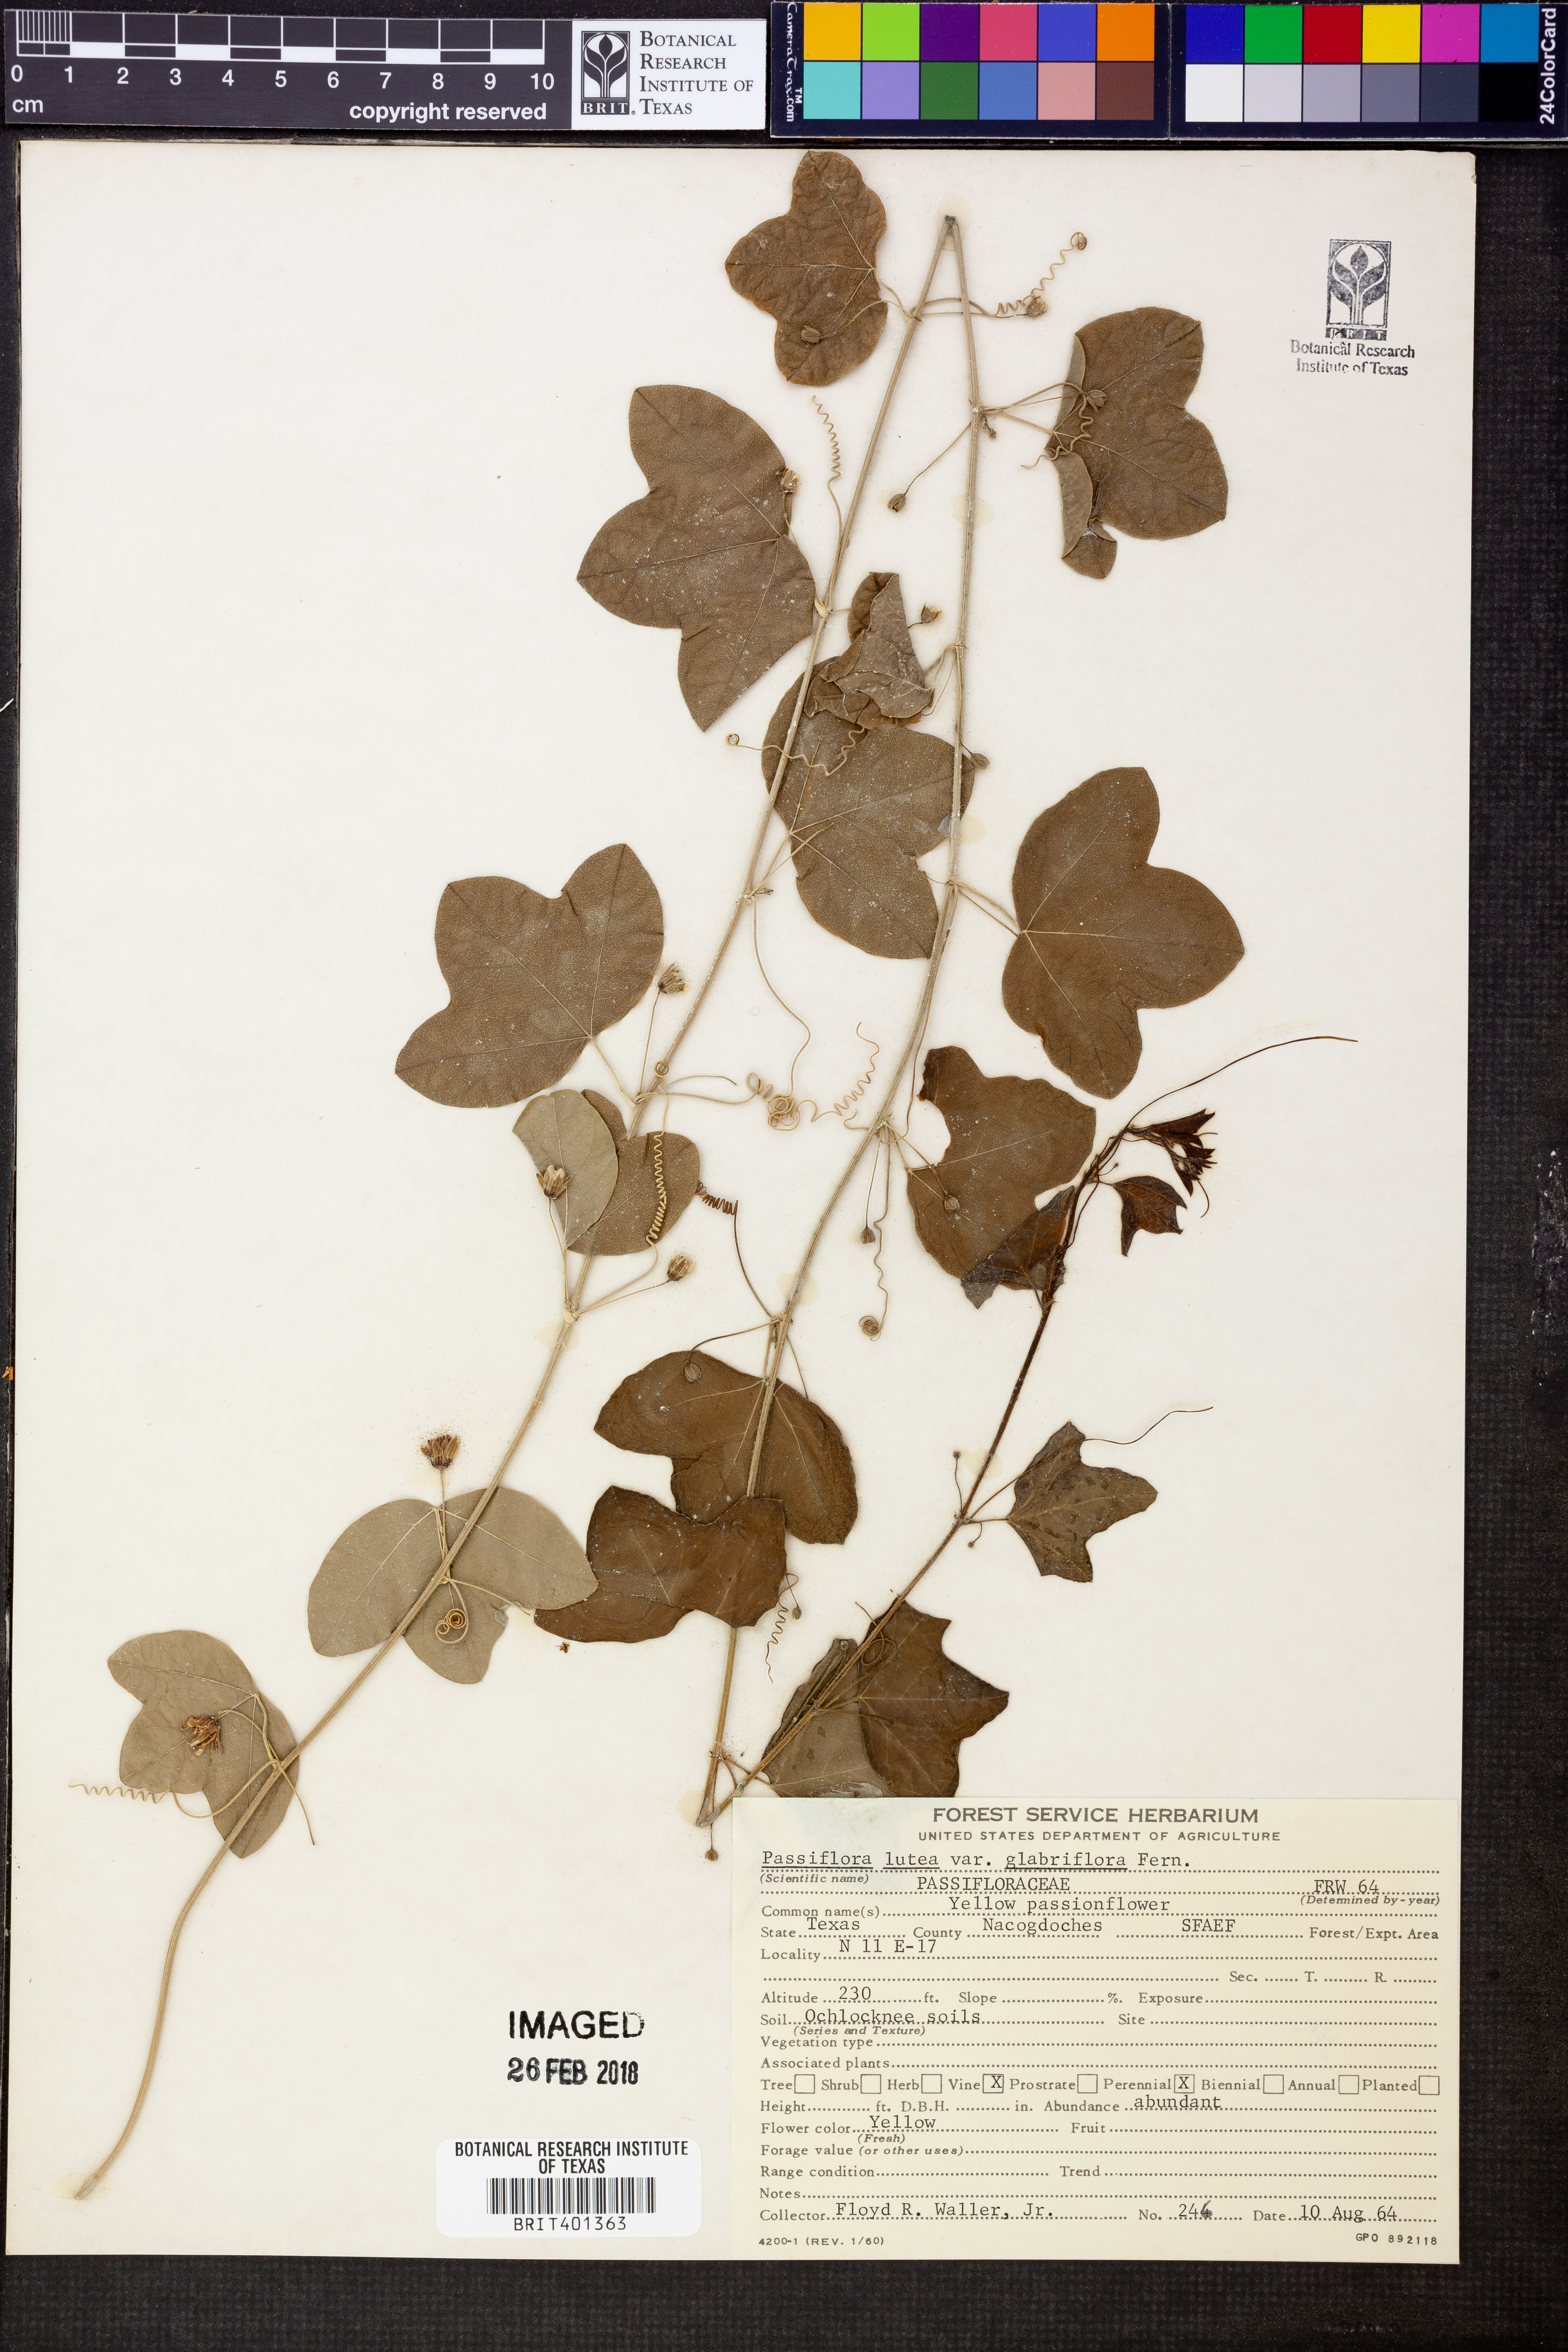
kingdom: Plantae
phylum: Tracheophyta
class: Magnoliopsida
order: Malpighiales
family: Passifloraceae
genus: Passiflora
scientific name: Passiflora lutea
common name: Yellow passionflower
